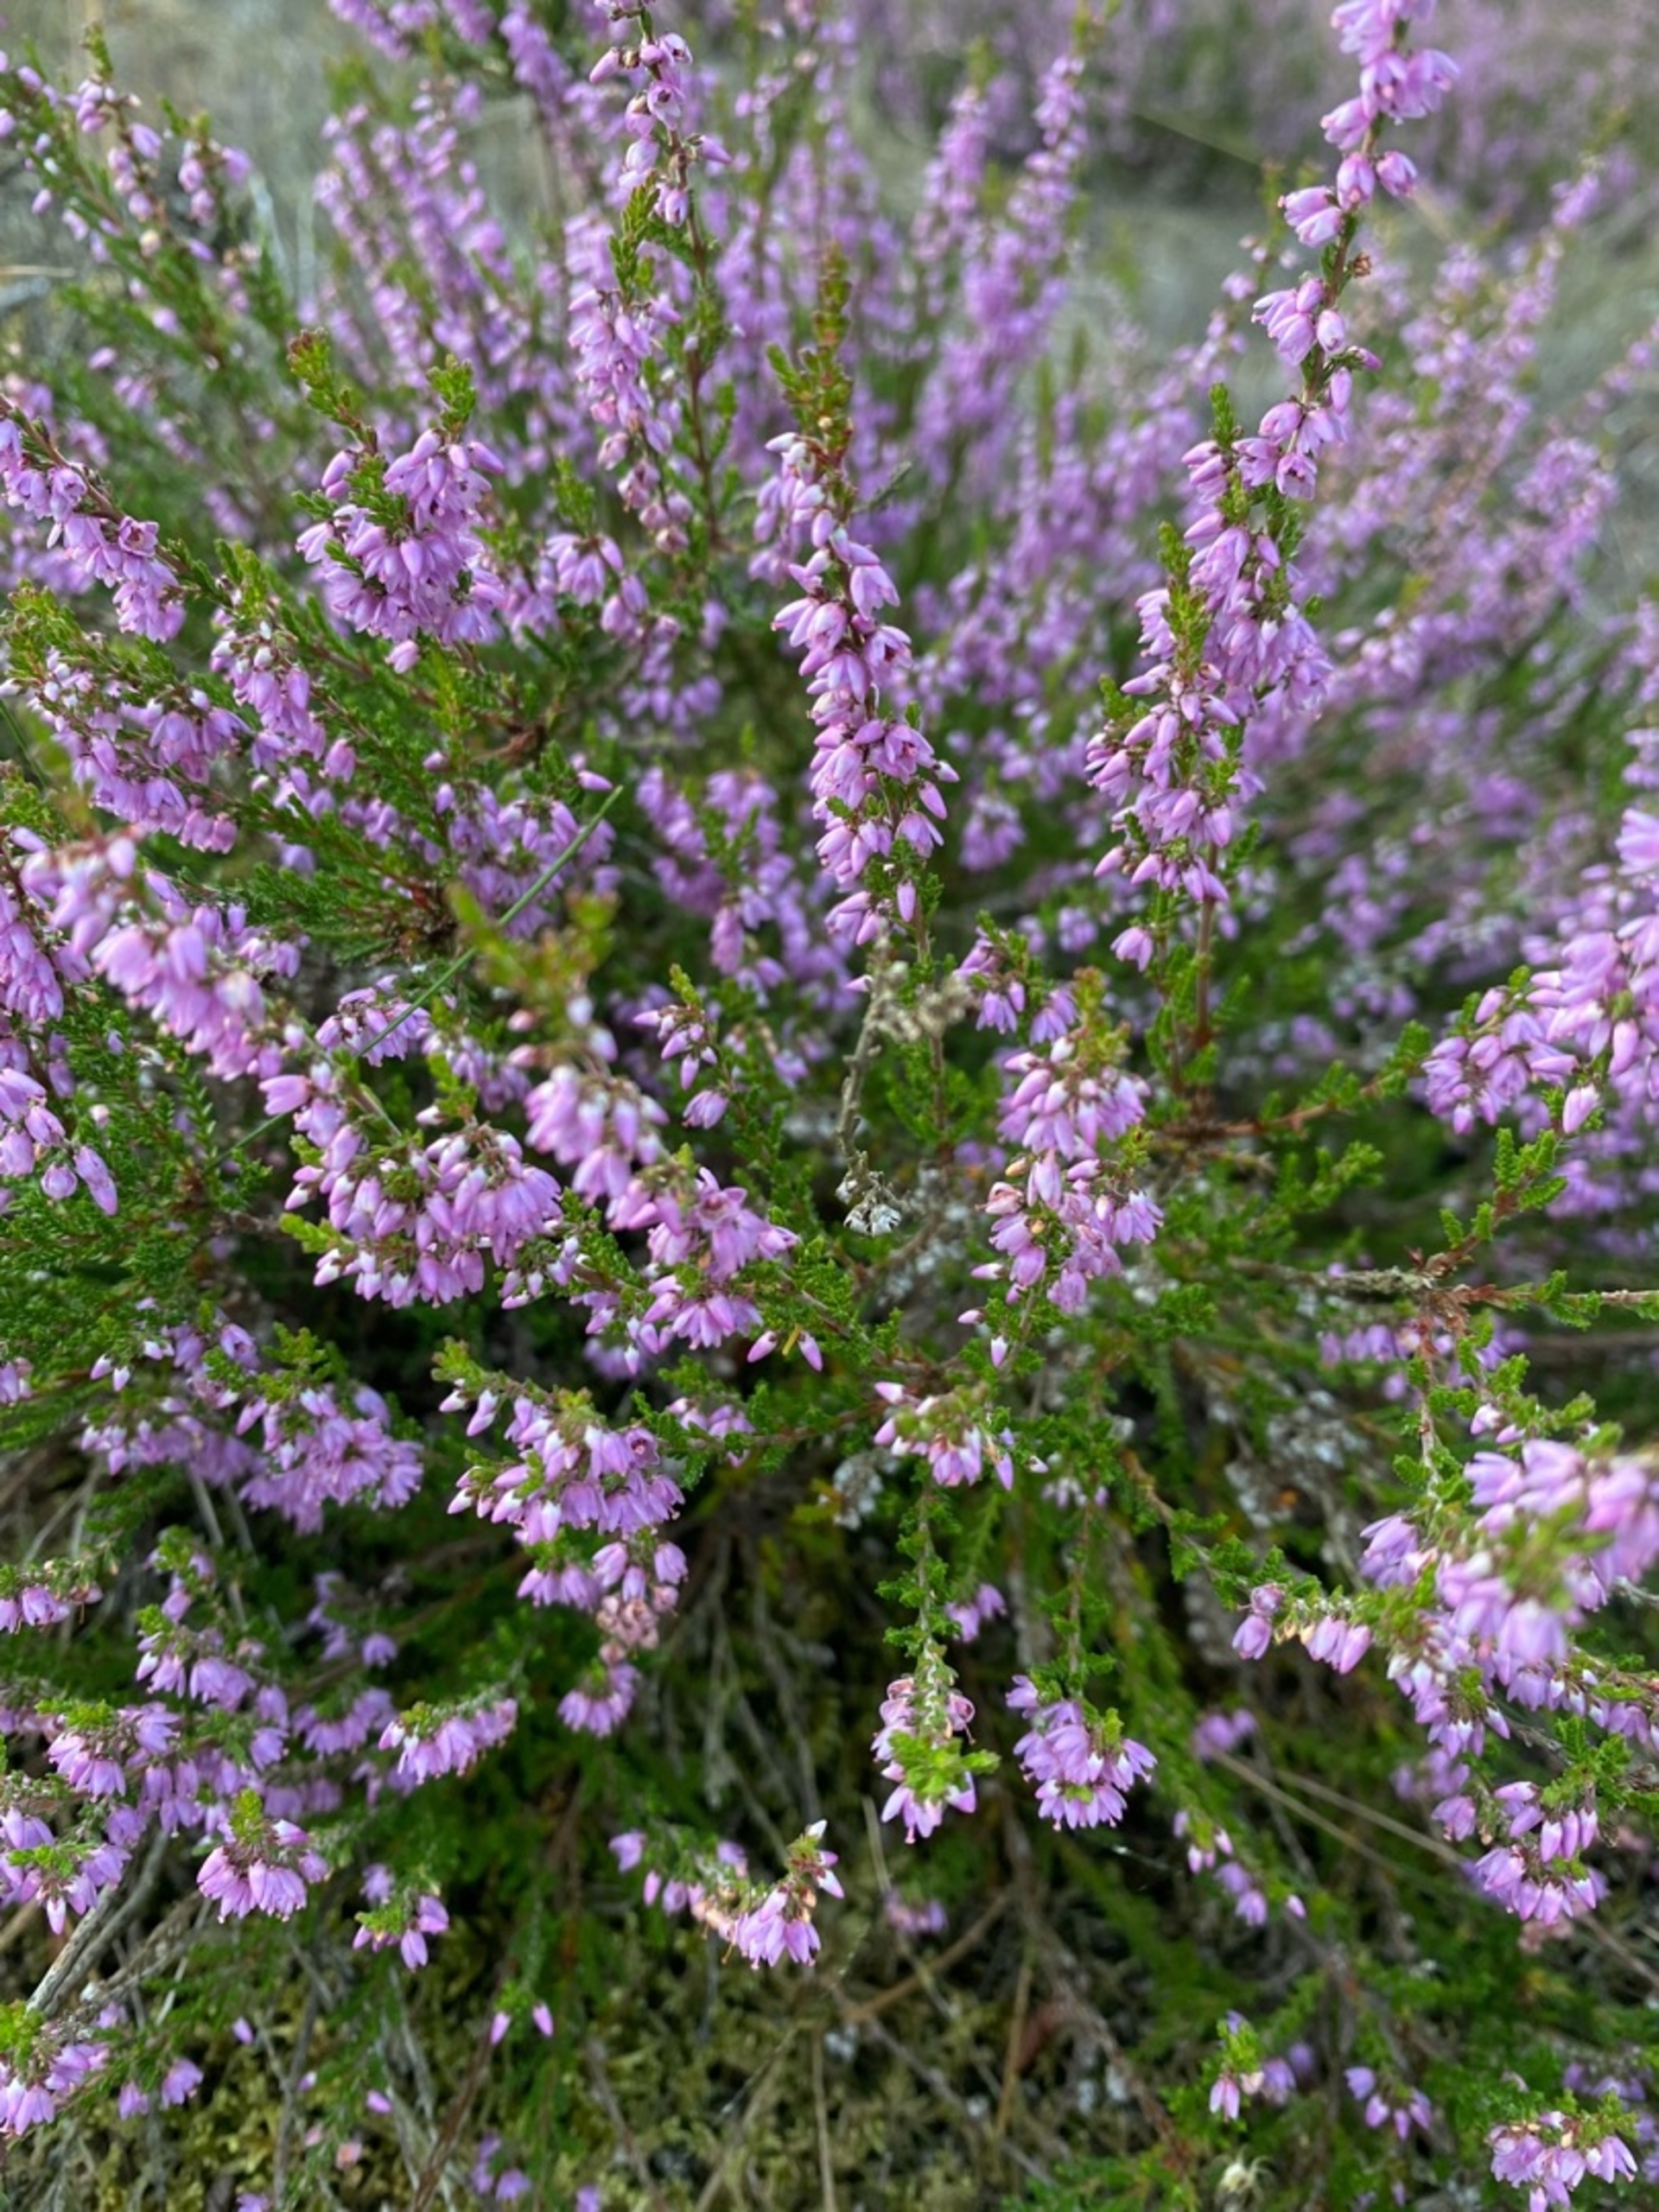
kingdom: Plantae
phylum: Tracheophyta
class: Magnoliopsida
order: Ericales
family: Ericaceae
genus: Calluna
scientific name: Calluna vulgaris
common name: Hedelyng
